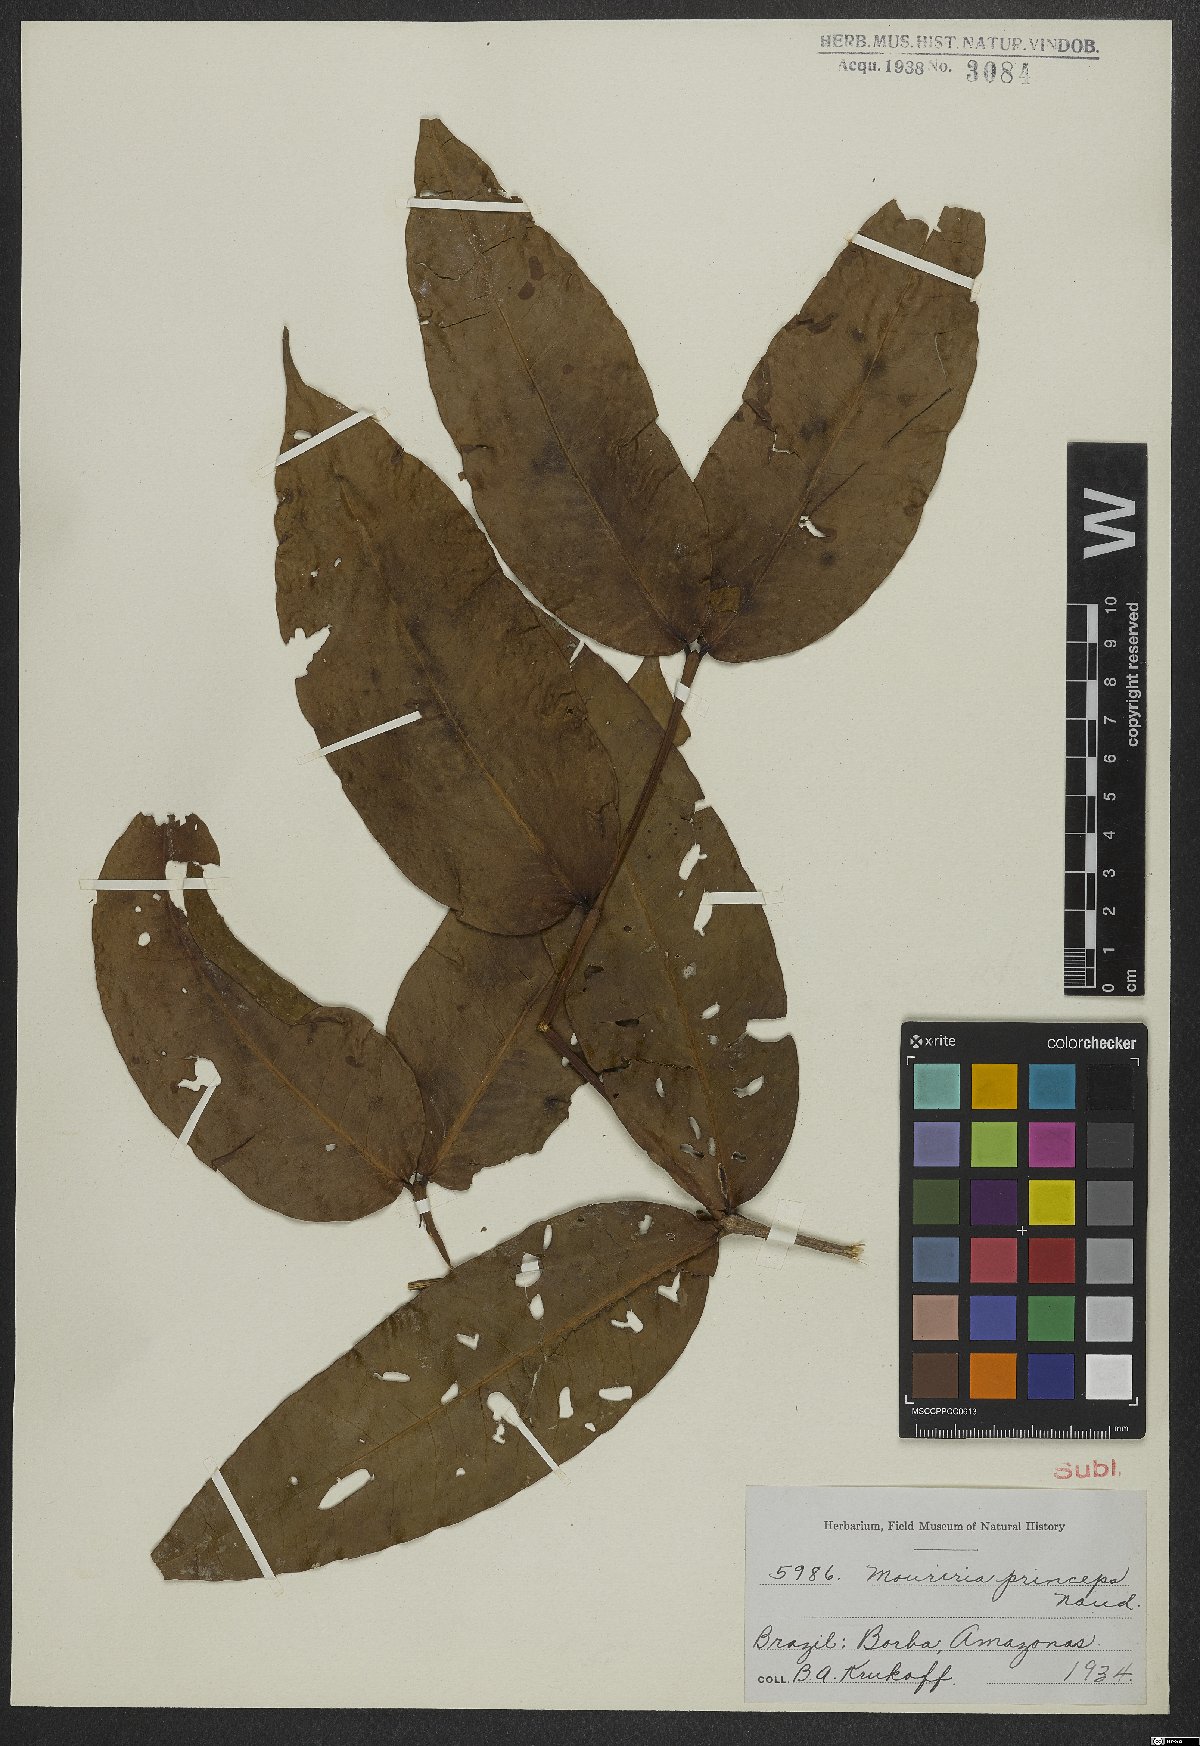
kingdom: Plantae
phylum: Tracheophyta
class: Magnoliopsida
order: Myrtales
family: Melastomataceae
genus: Mouriri
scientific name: Mouriri grandiflora
